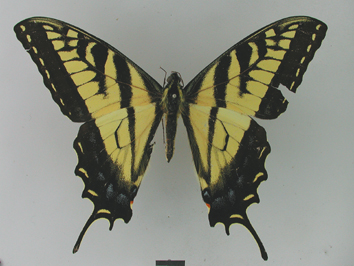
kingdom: Animalia
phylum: Arthropoda
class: Insecta
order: Lepidoptera
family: Papilionidae
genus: Papilio
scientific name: Papilio glaucus
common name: Tiger swallowtail
